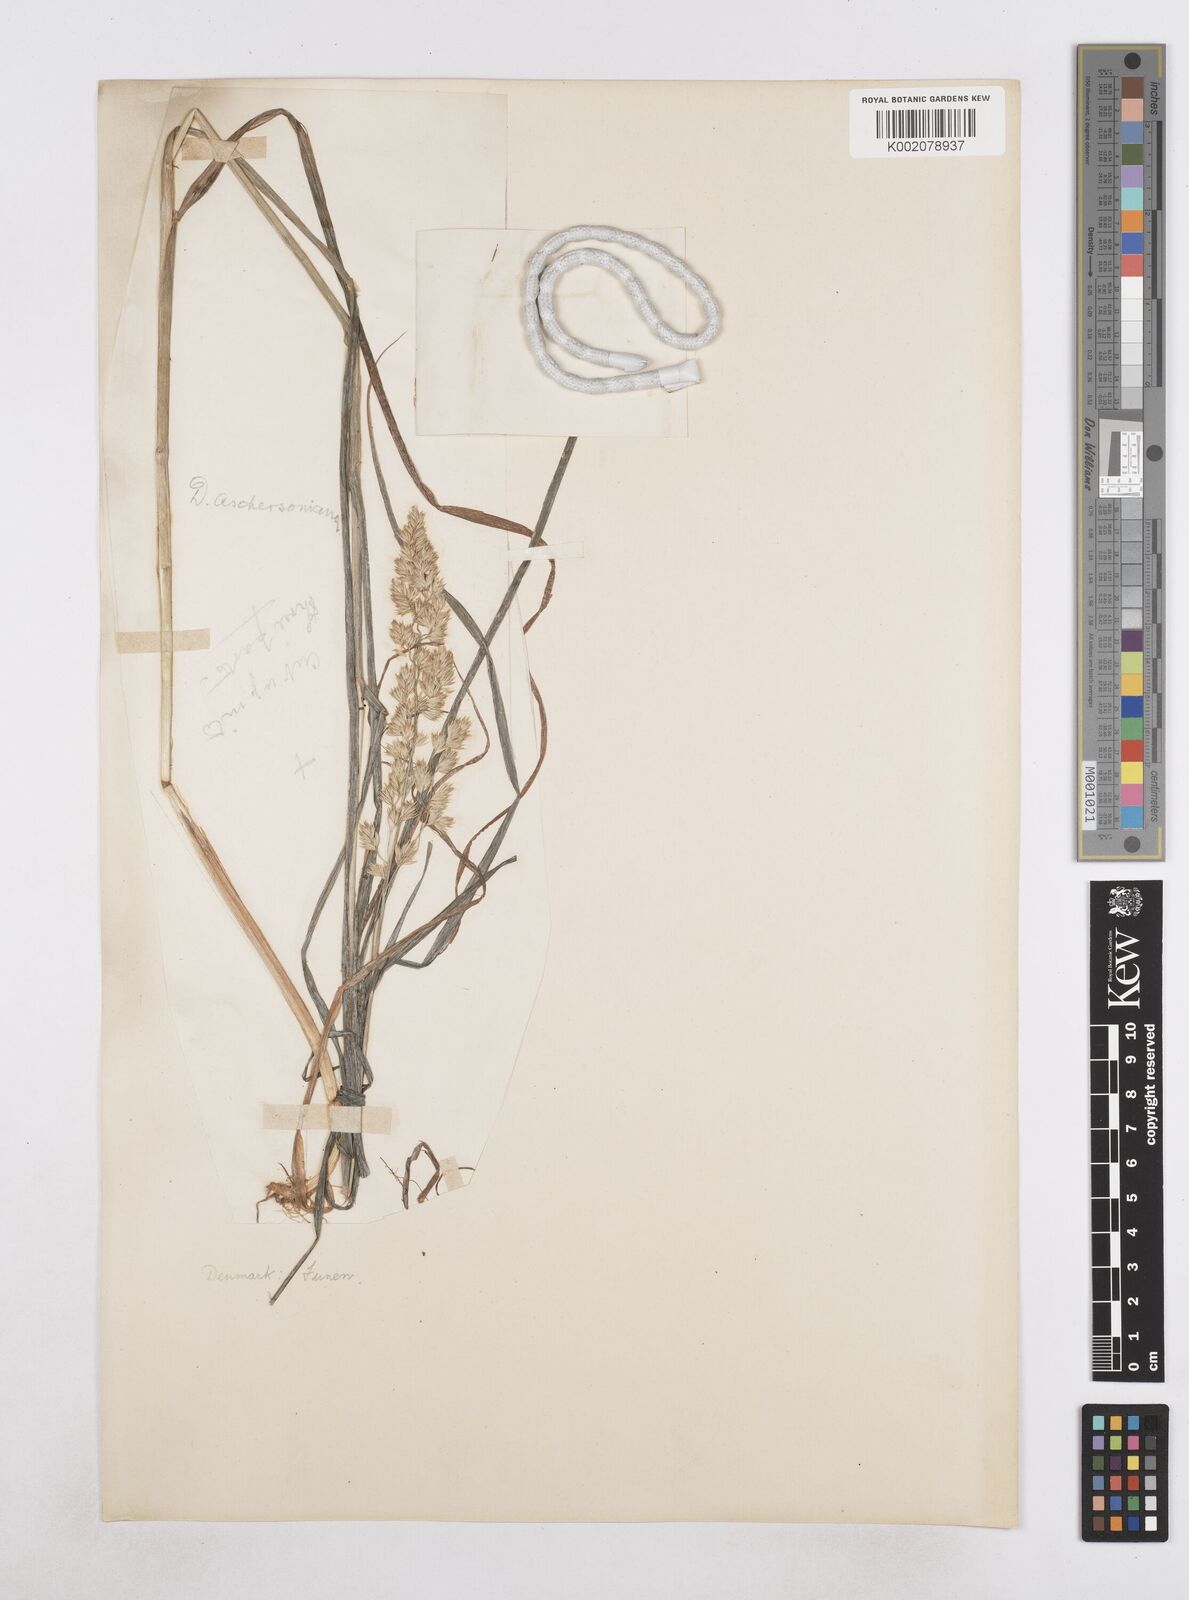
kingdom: Plantae
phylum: Tracheophyta
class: Liliopsida
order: Poales
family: Poaceae
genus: Dactylis
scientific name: Dactylis glomerata
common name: Orchardgrass
